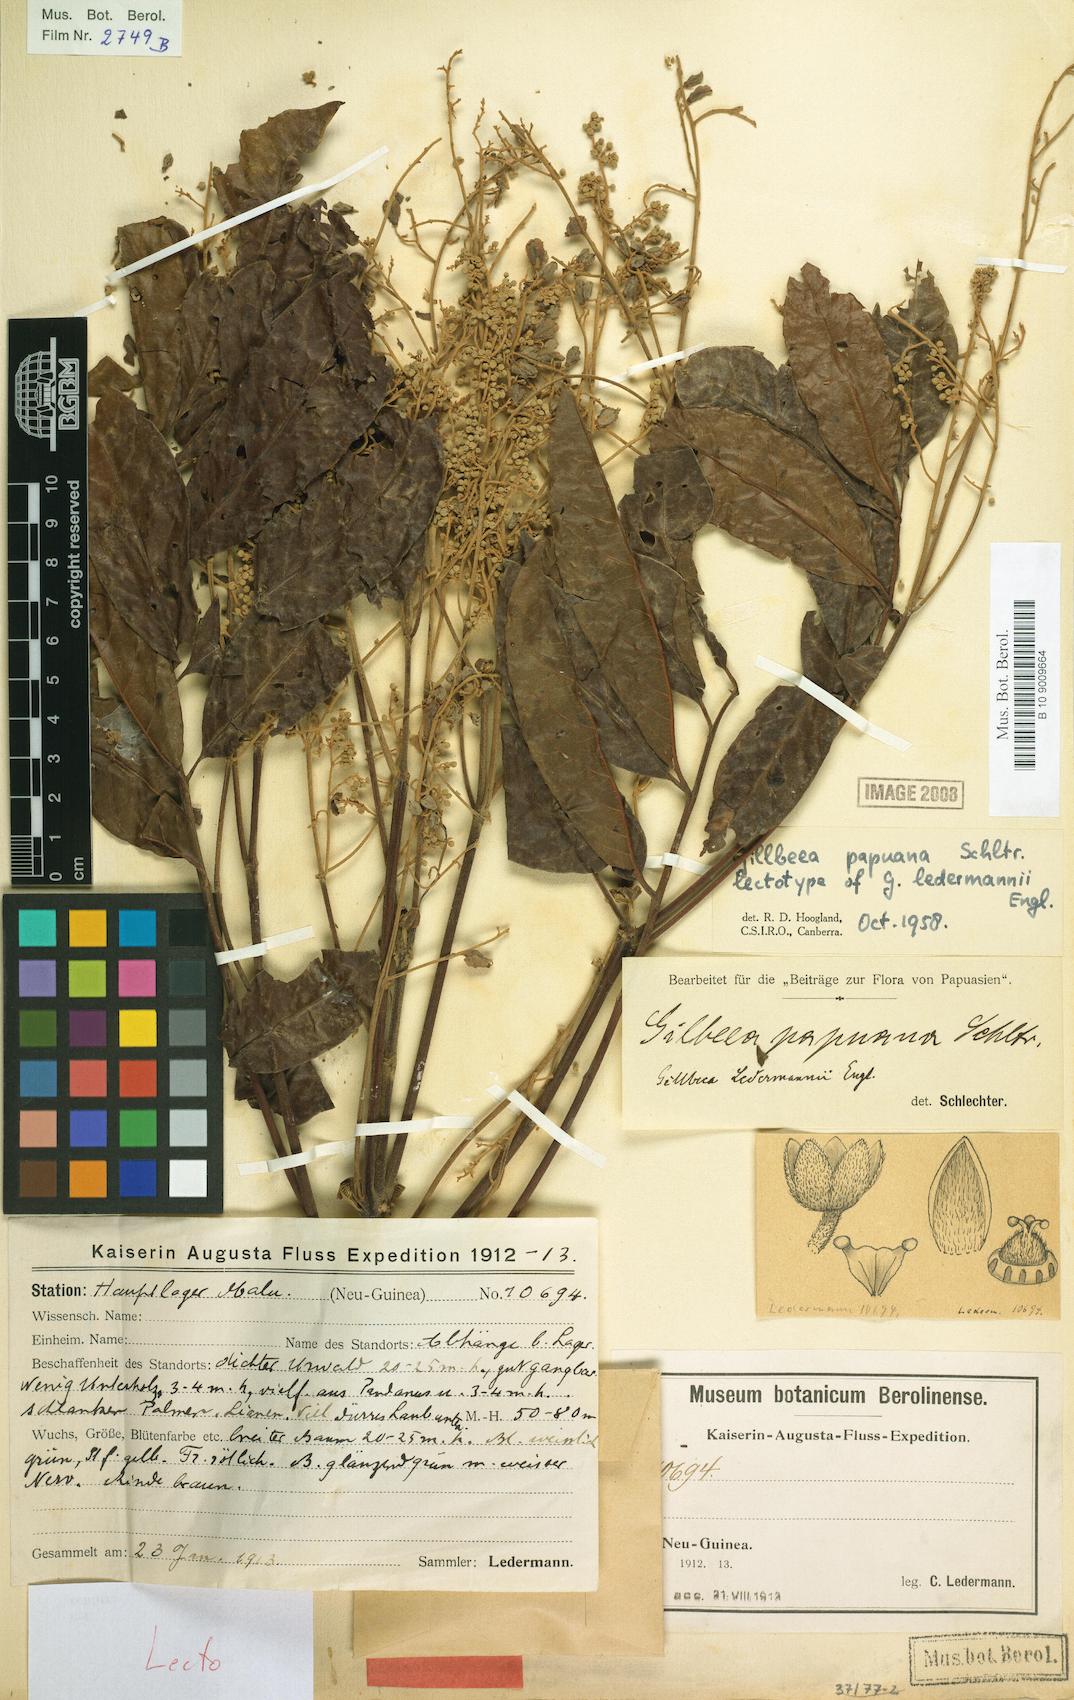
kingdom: Plantae
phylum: Tracheophyta
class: Magnoliopsida
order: Oxalidales
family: Cunoniaceae
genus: Gillbeea
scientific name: Gillbeea papuana
